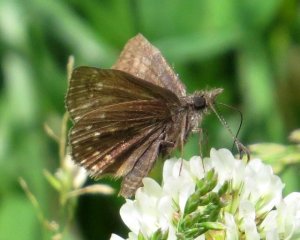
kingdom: Animalia
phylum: Arthropoda
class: Insecta
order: Lepidoptera
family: Hesperiidae
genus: Erynnis
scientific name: Erynnis icelus
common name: Dreamy Duskywing
